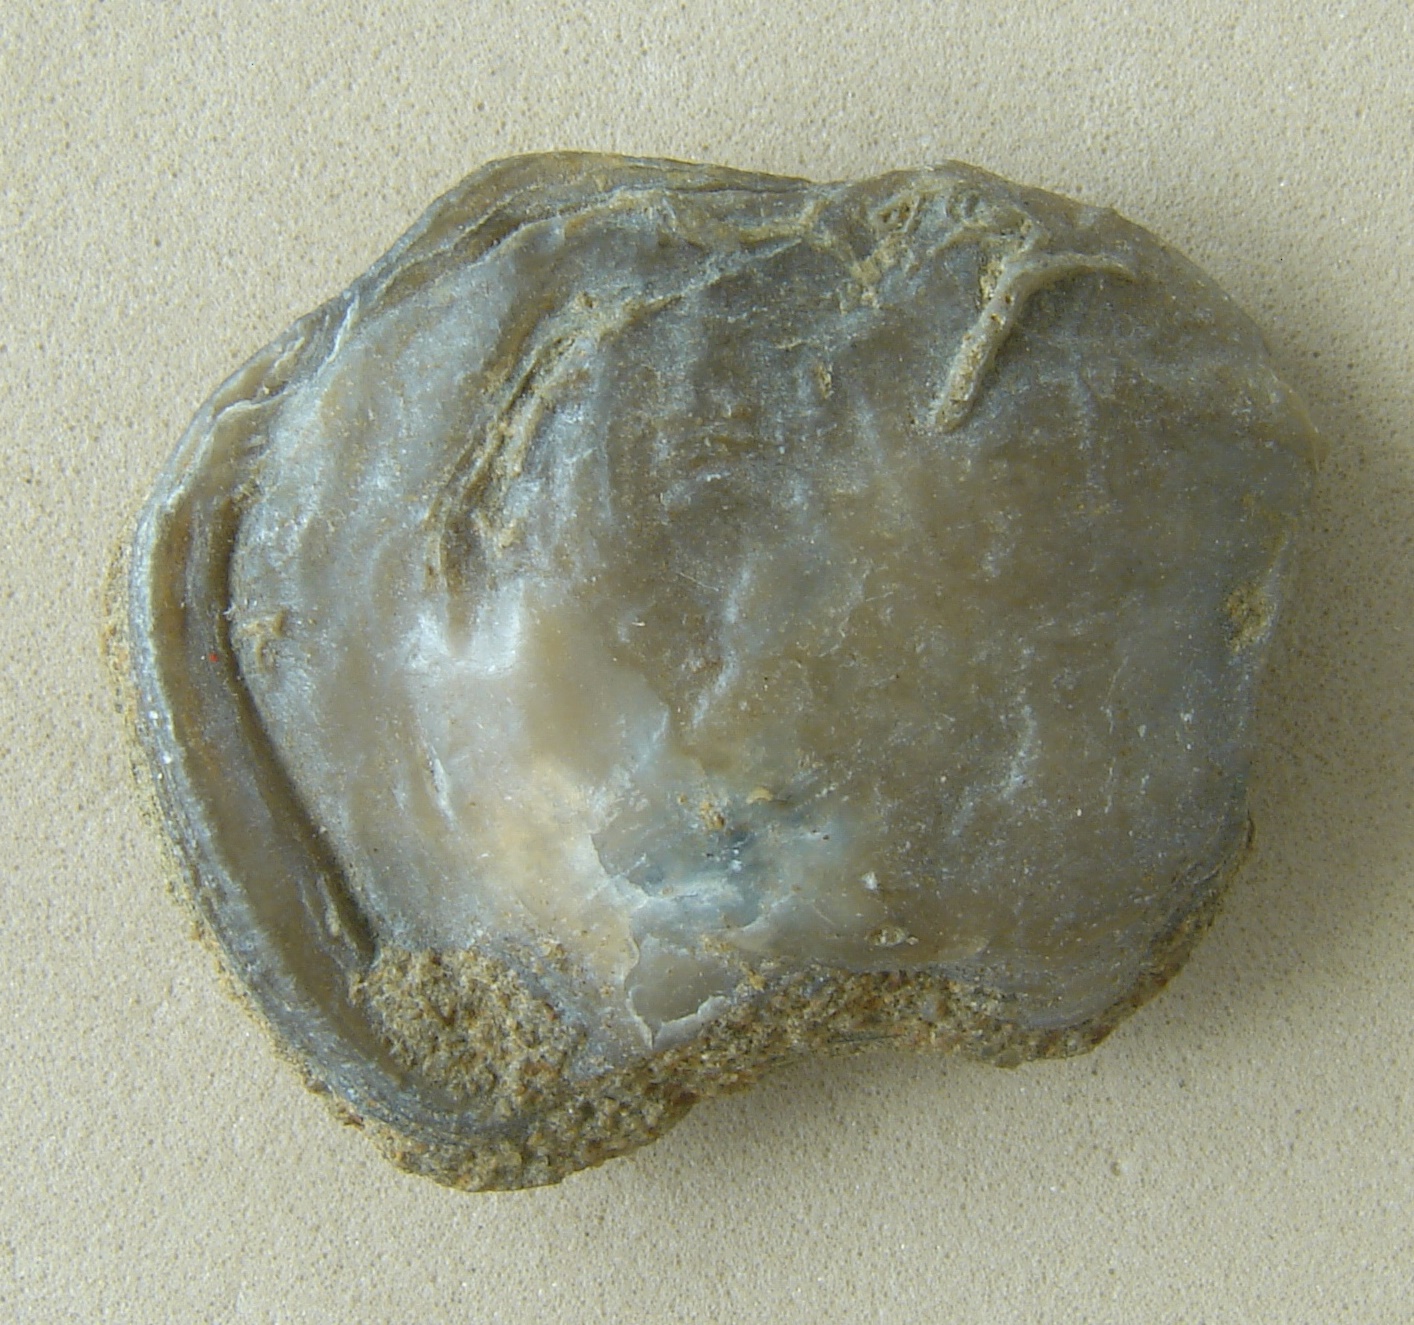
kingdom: Animalia
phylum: Mollusca
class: Bivalvia
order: Ostreida
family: Flemingostreidae
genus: Liostrea
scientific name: Liostrea
